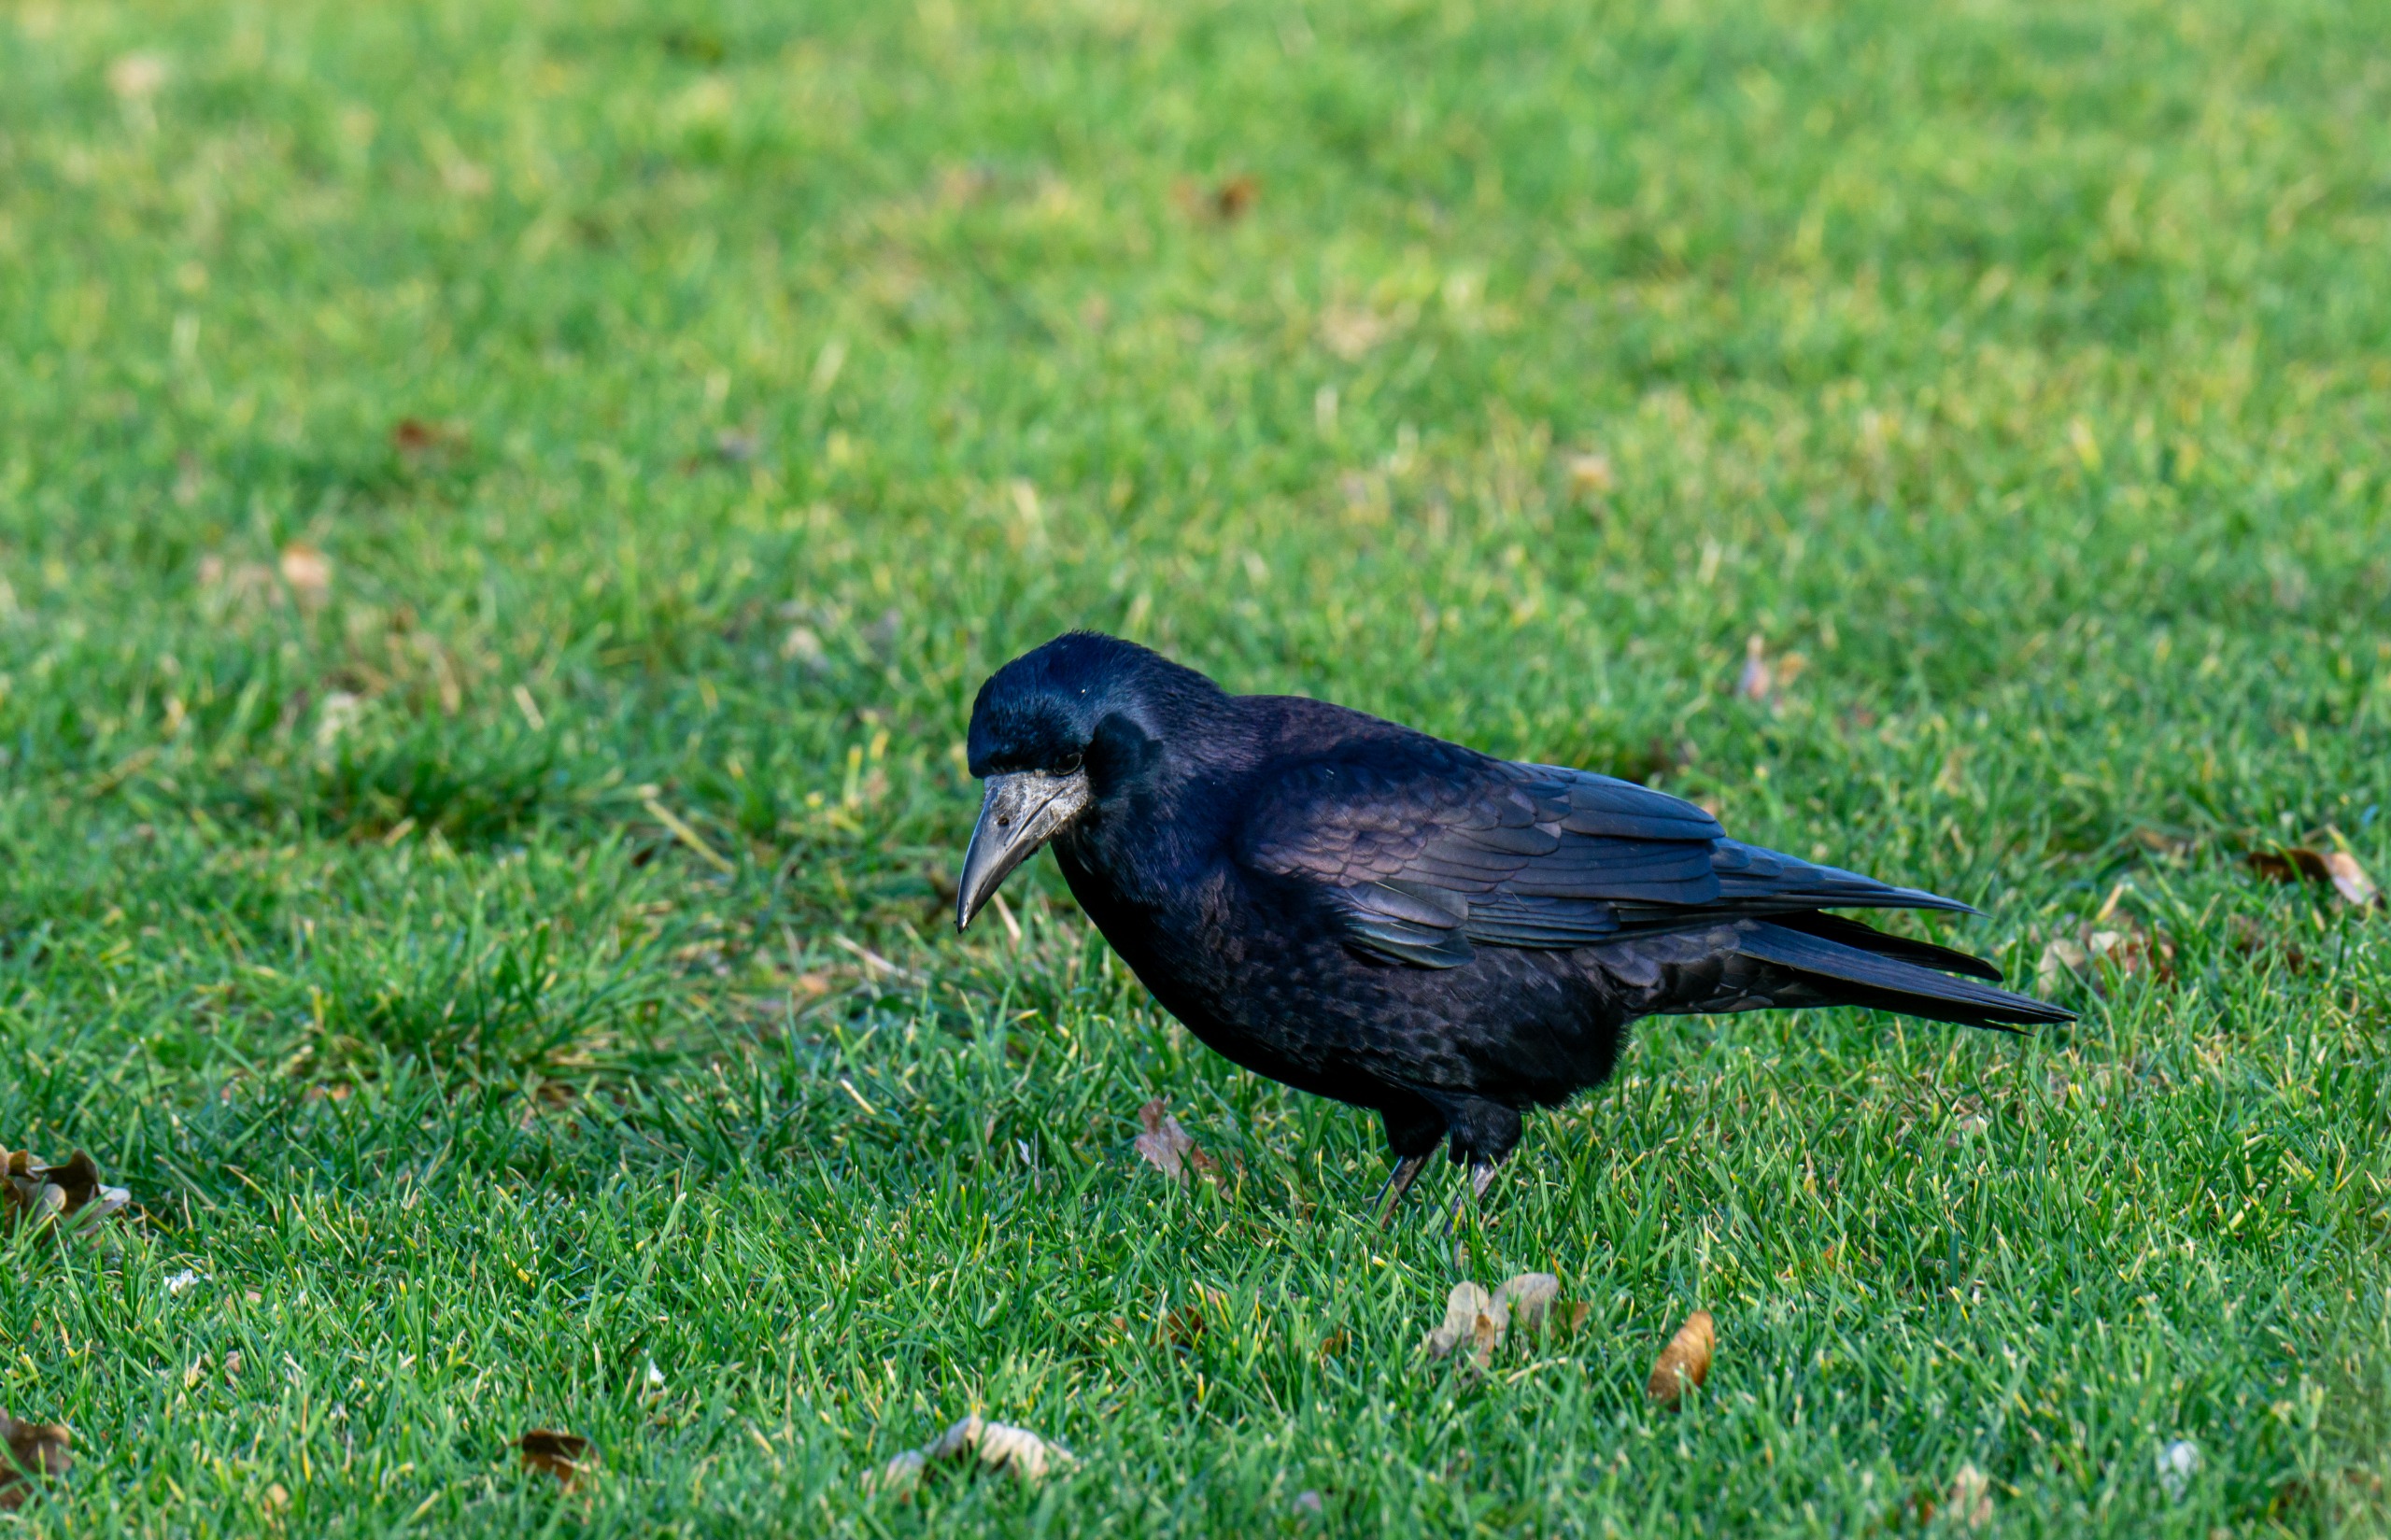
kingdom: Animalia
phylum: Chordata
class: Aves
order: Passeriformes
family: Corvidae
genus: Corvus
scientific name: Corvus frugilegus
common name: Råge
